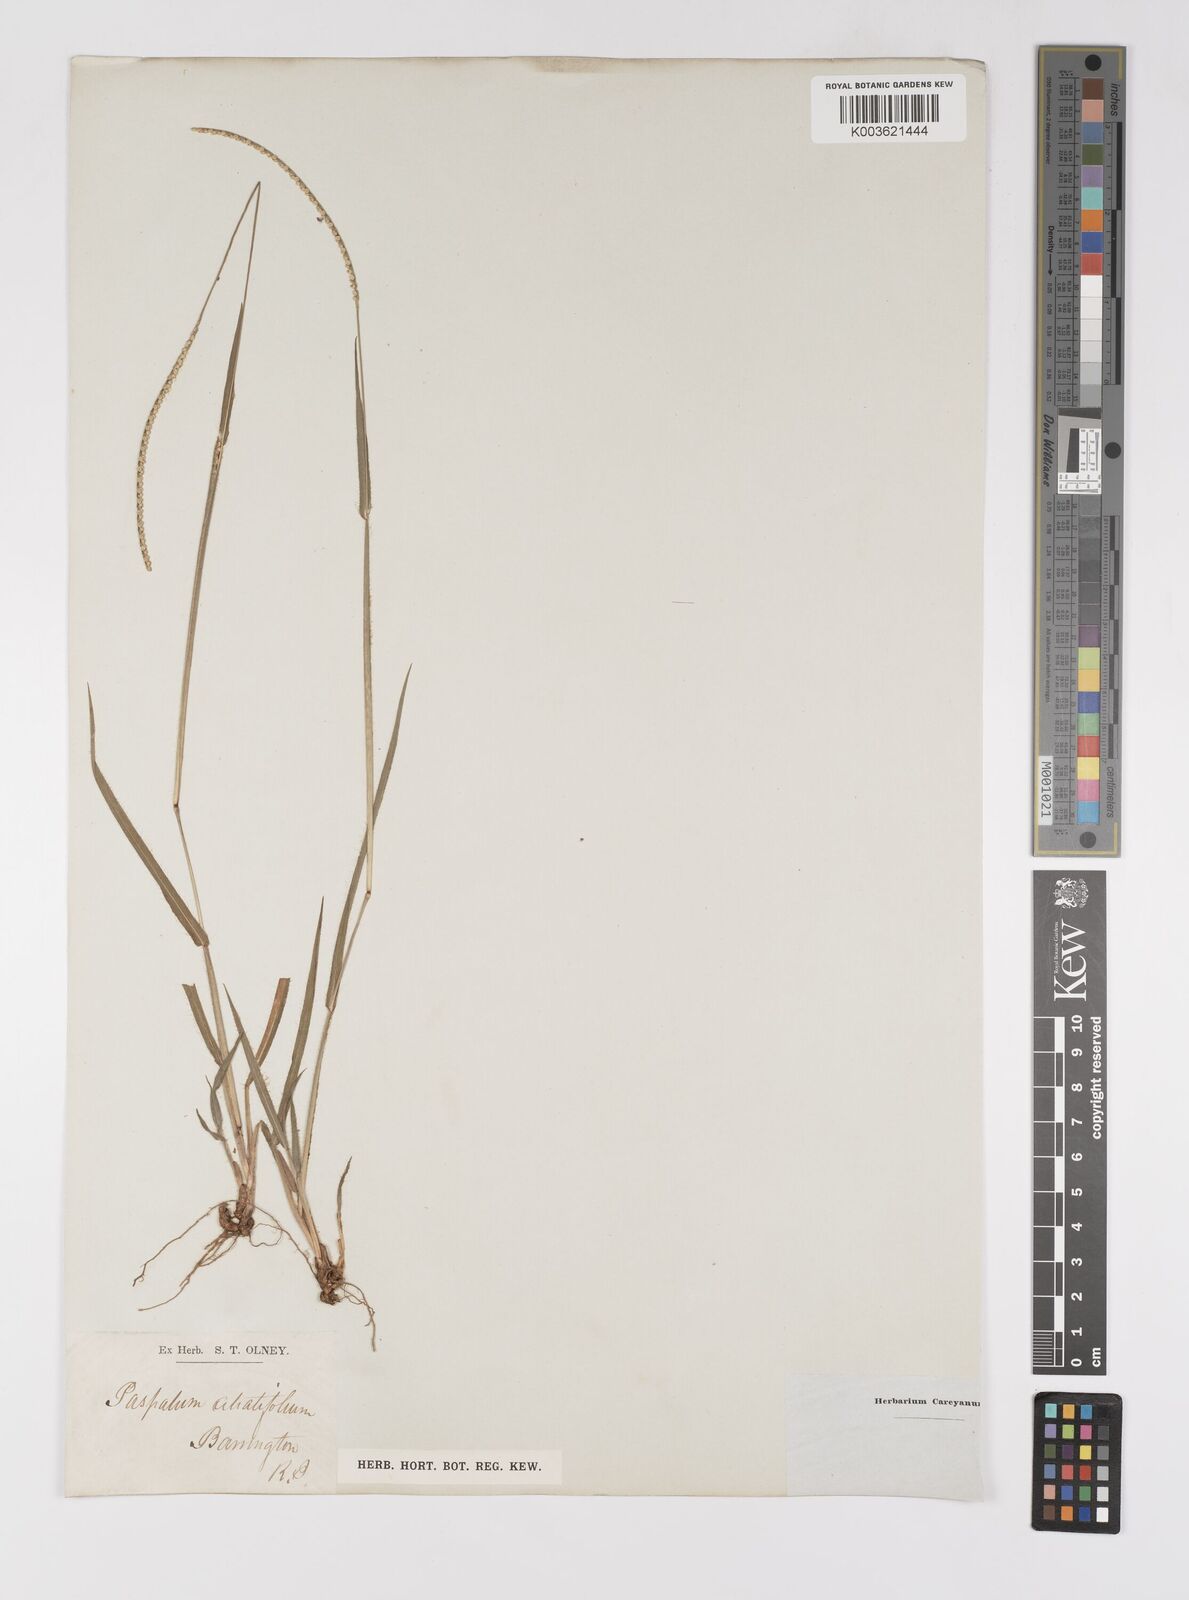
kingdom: Plantae
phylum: Tracheophyta
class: Liliopsida
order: Poales
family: Poaceae
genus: Paspalum
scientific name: Paspalum
